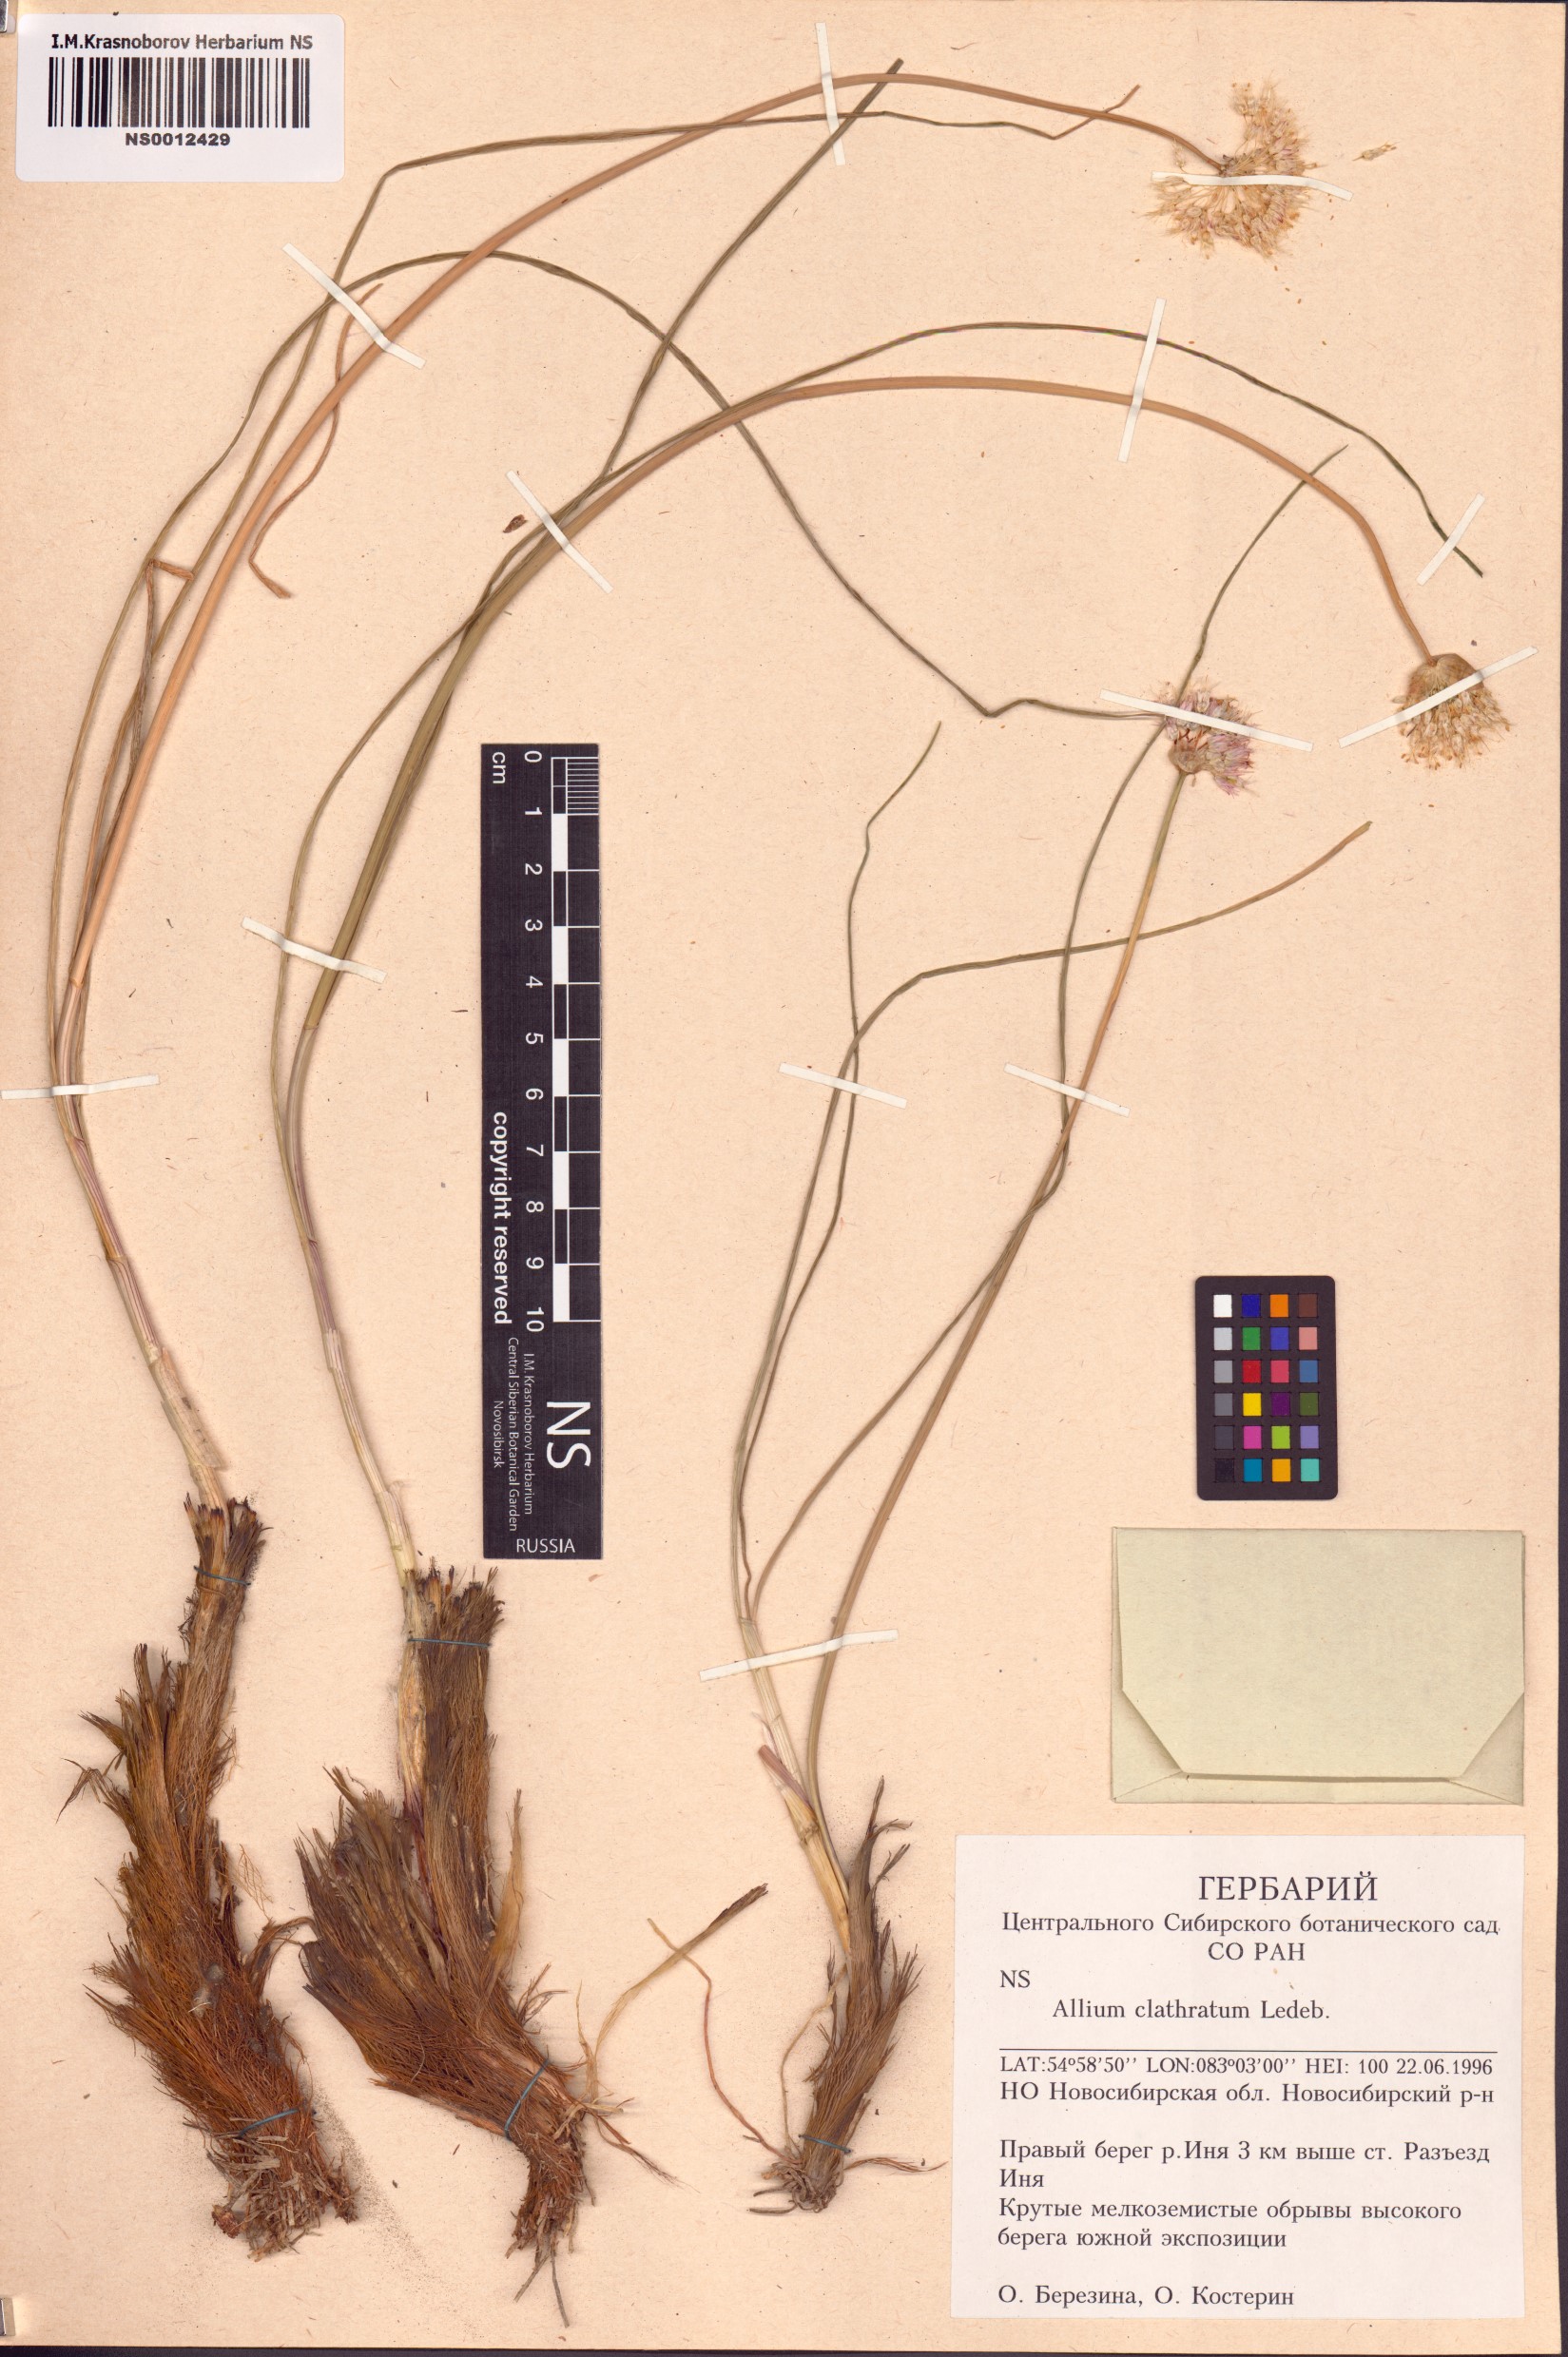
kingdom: Plantae
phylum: Tracheophyta
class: Liliopsida
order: Asparagales
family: Amaryllidaceae
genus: Allium
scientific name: Allium clathratum
